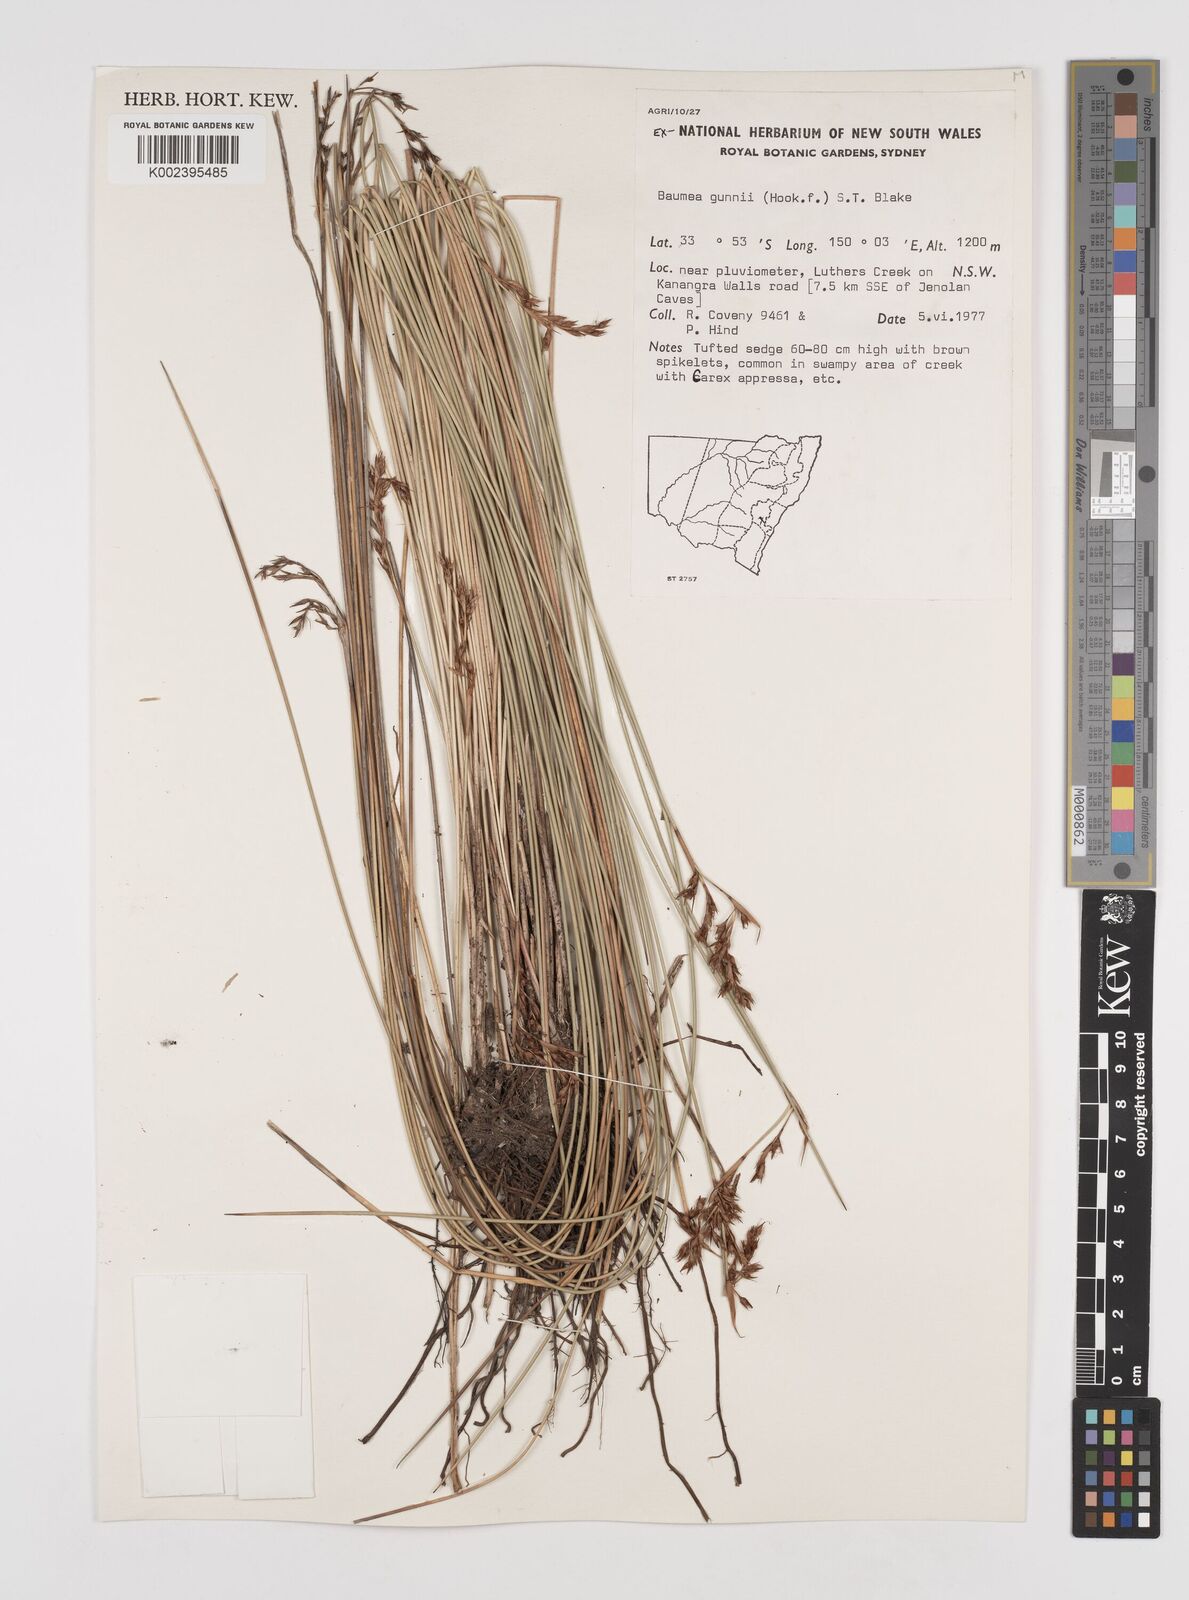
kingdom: Plantae
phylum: Tracheophyta
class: Liliopsida
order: Poales
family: Cyperaceae
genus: Machaerina
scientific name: Machaerina gunnii
